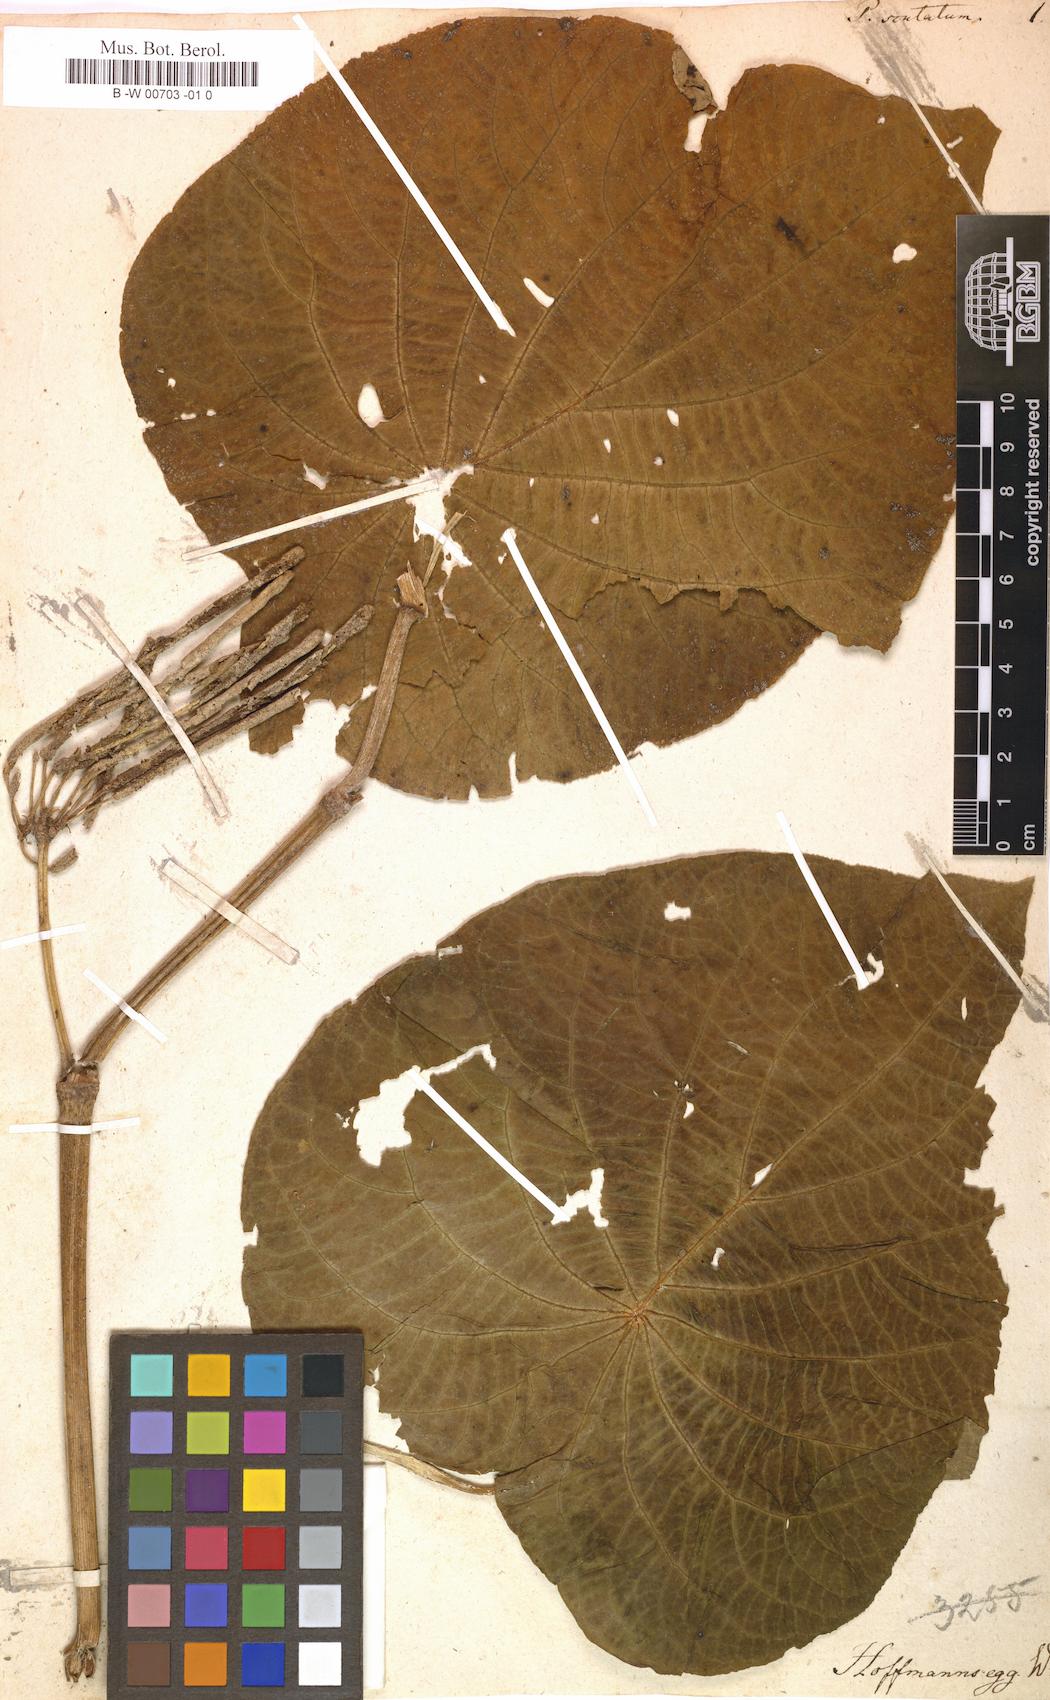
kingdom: Plantae
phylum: Tracheophyta
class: Magnoliopsida
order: Piperales
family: Piperaceae
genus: Piper
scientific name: Piper peltatum
